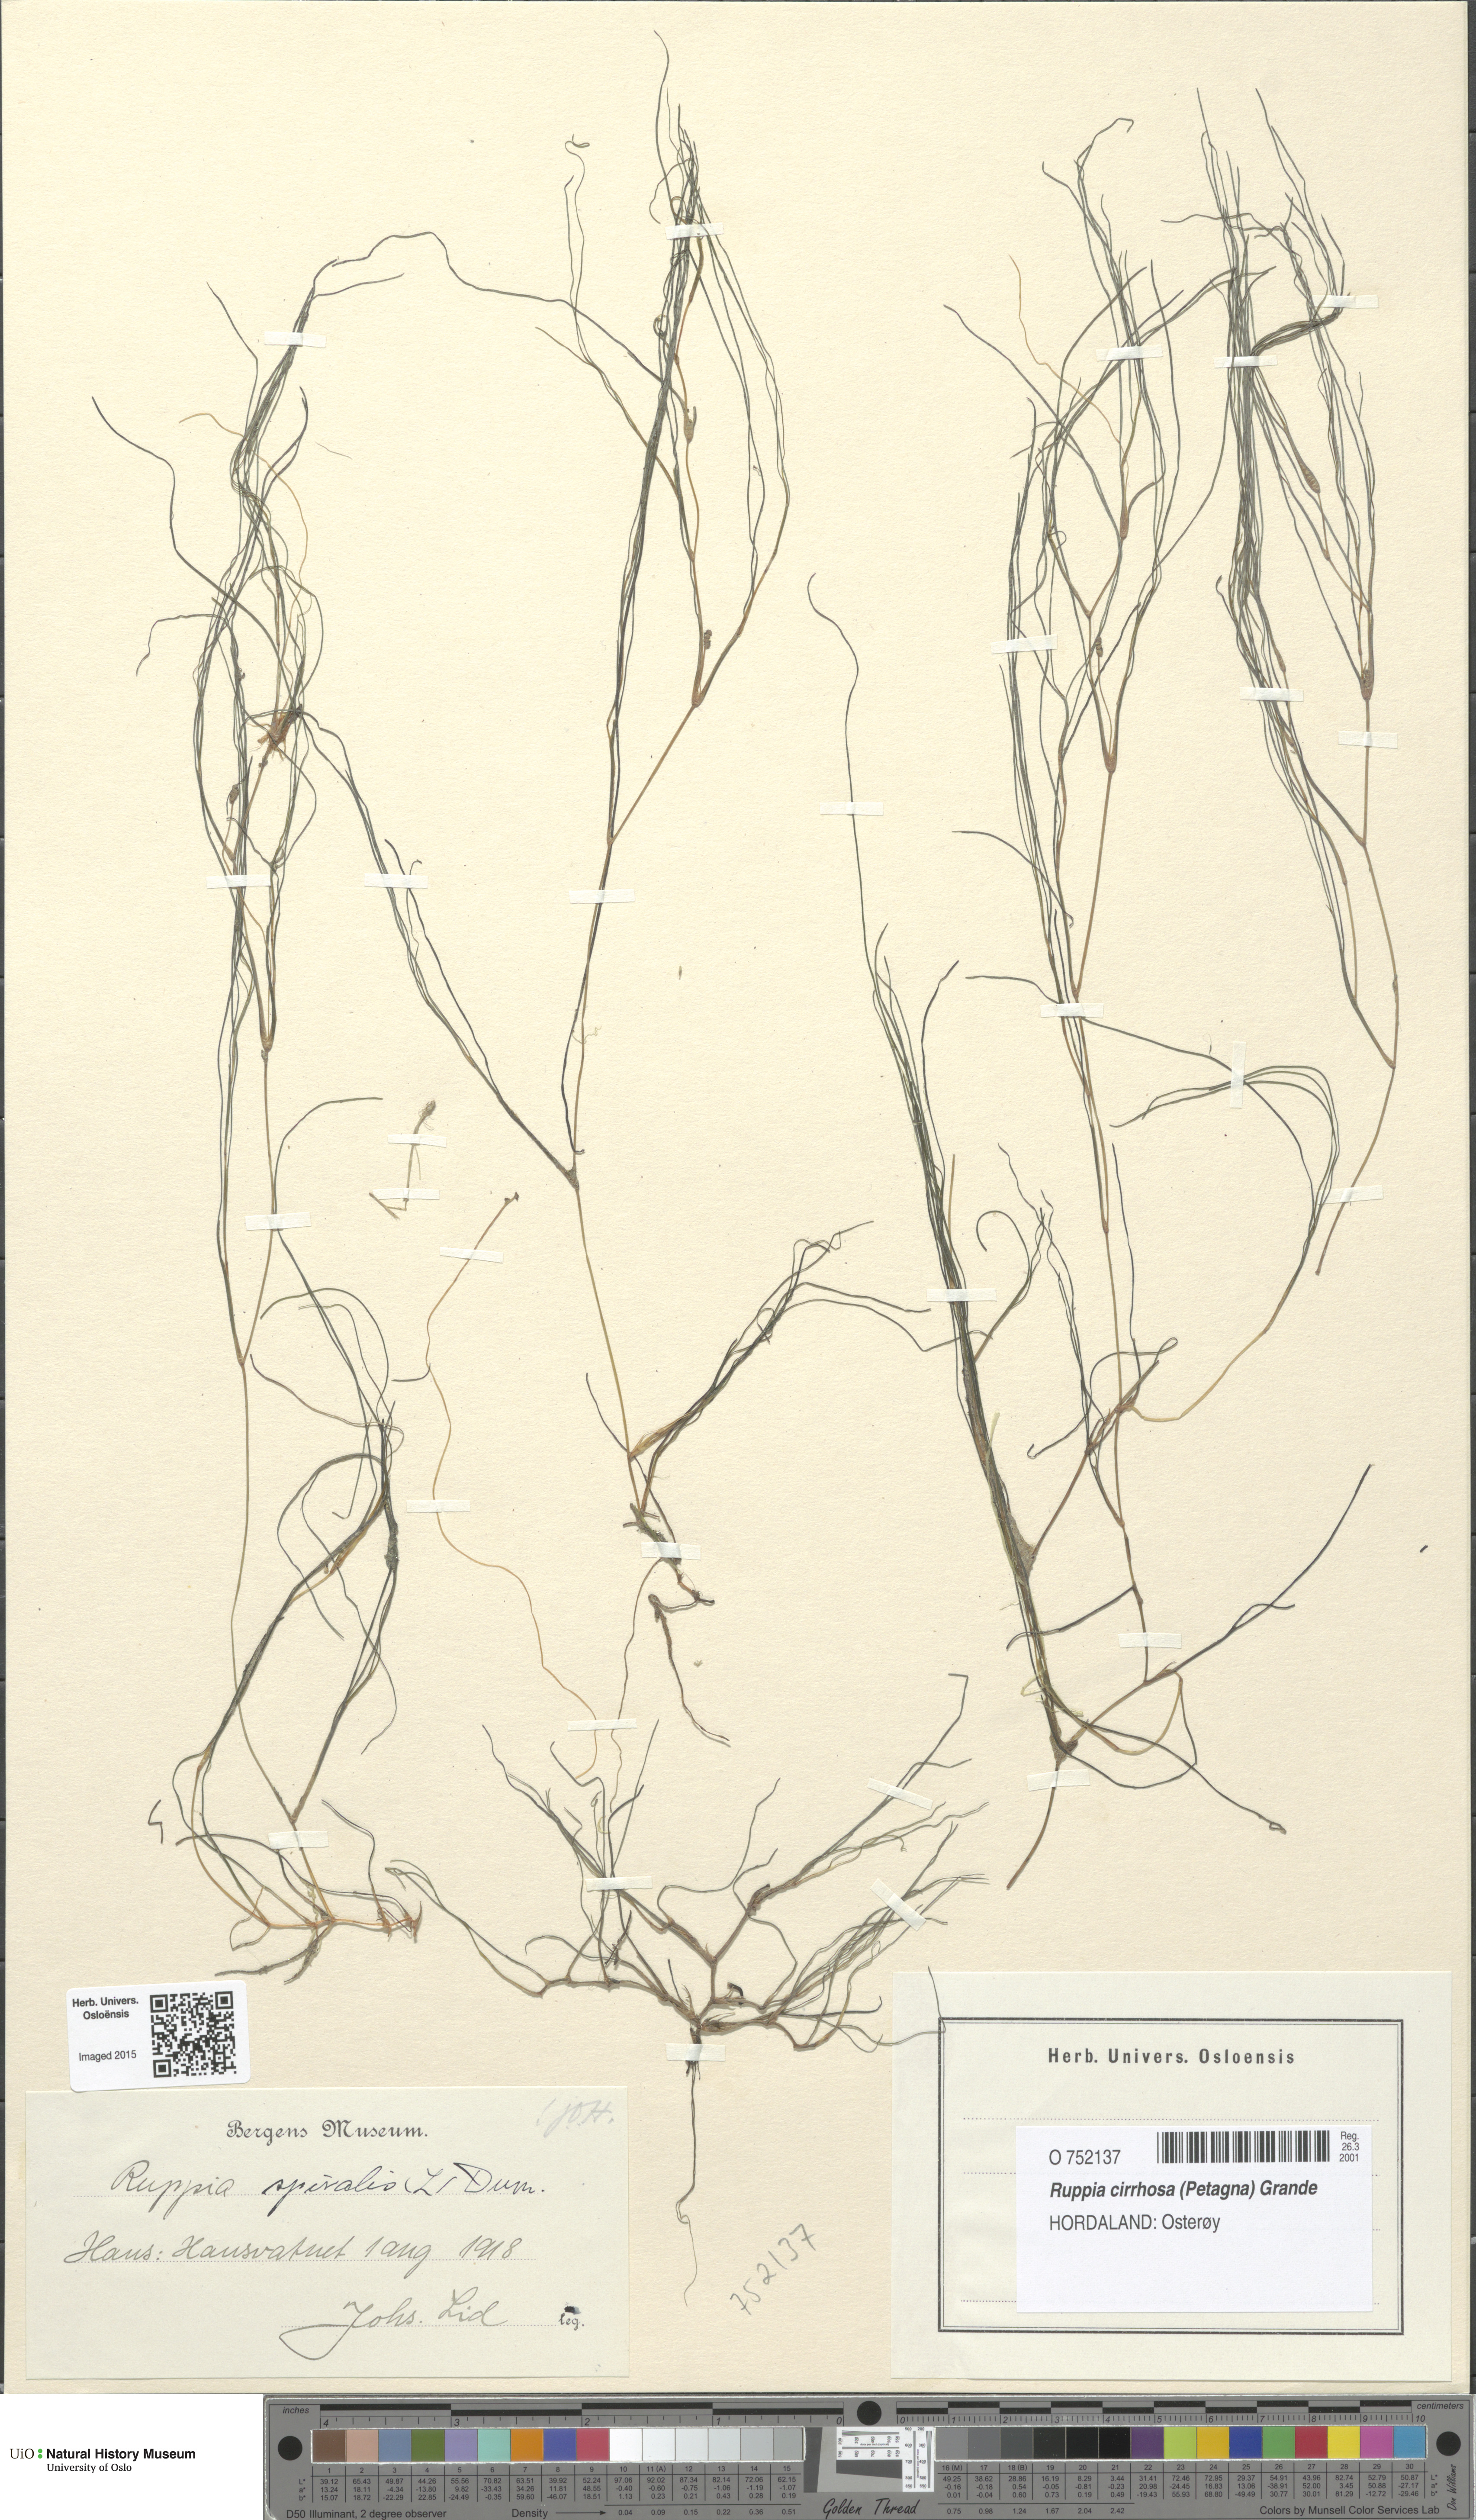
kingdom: Plantae
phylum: Tracheophyta
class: Liliopsida
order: Alismatales
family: Ruppiaceae
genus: Ruppia
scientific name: Ruppia cirrhosa
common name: Spiral tasselweed
